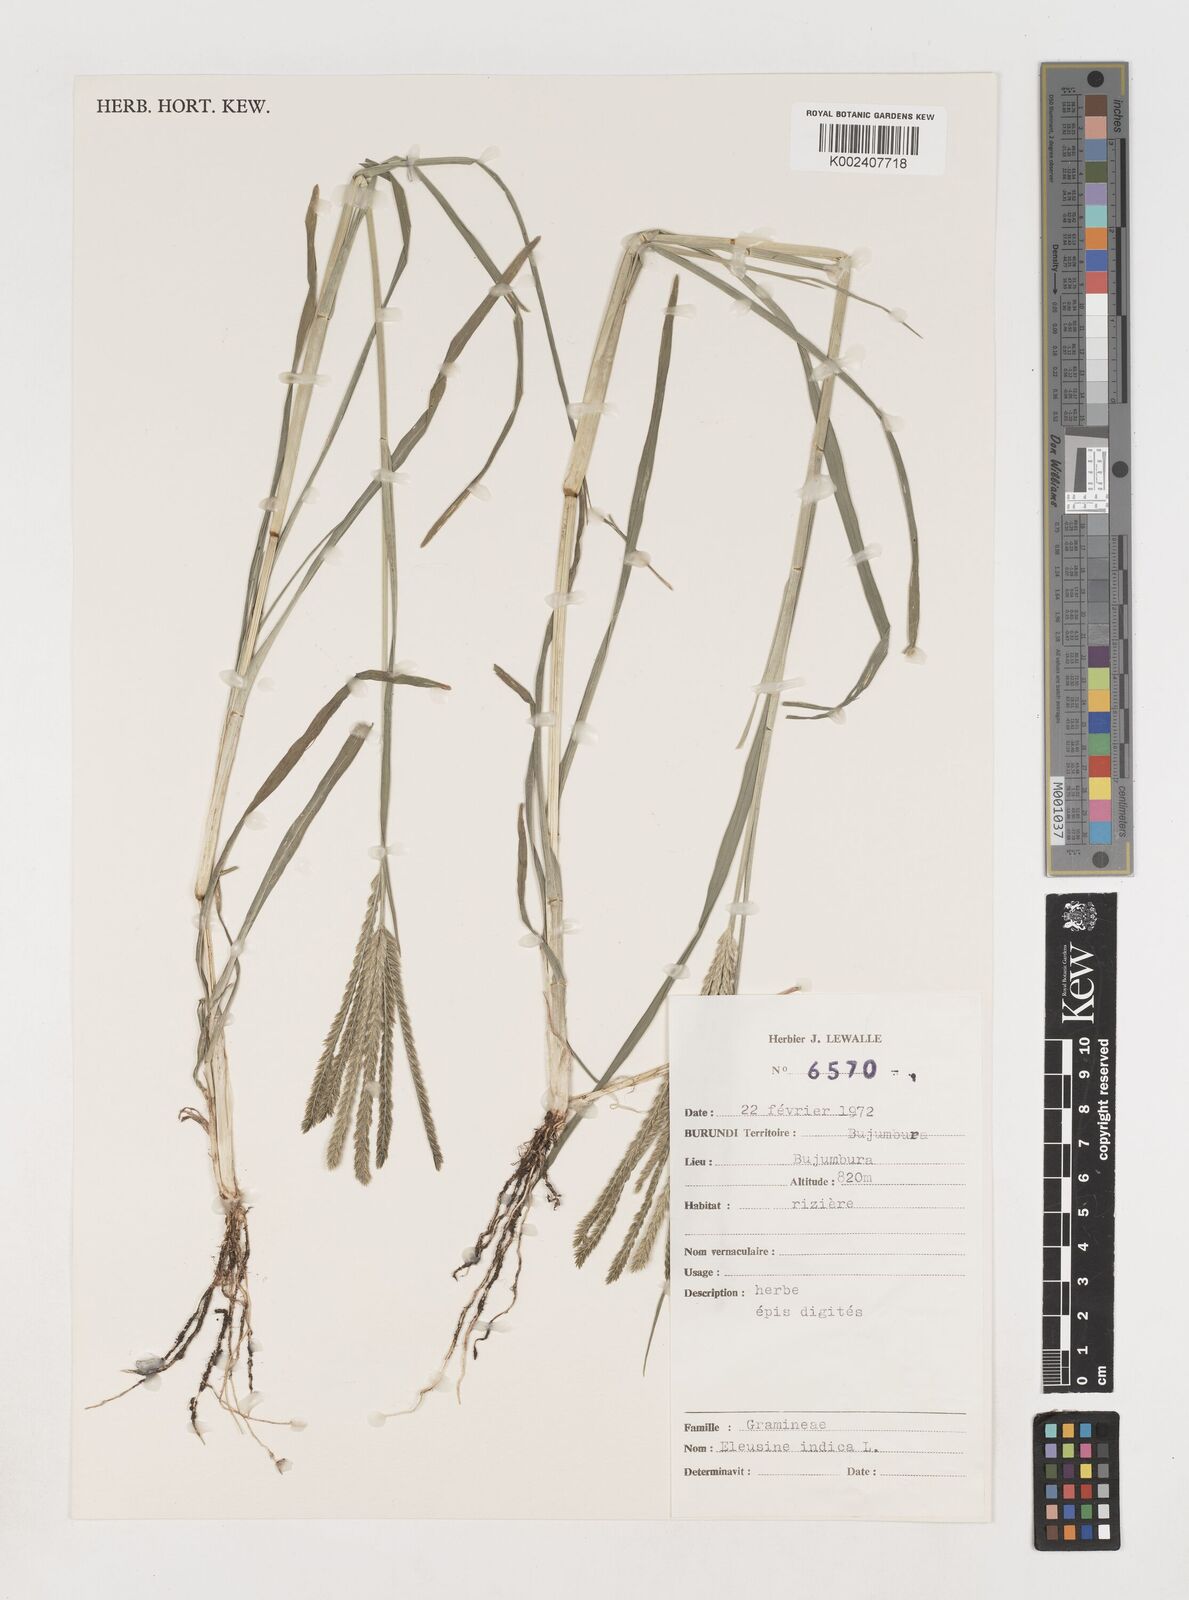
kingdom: Plantae
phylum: Tracheophyta
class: Liliopsida
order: Poales
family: Poaceae
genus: Eleusine
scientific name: Eleusine indica
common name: Yard-grass
